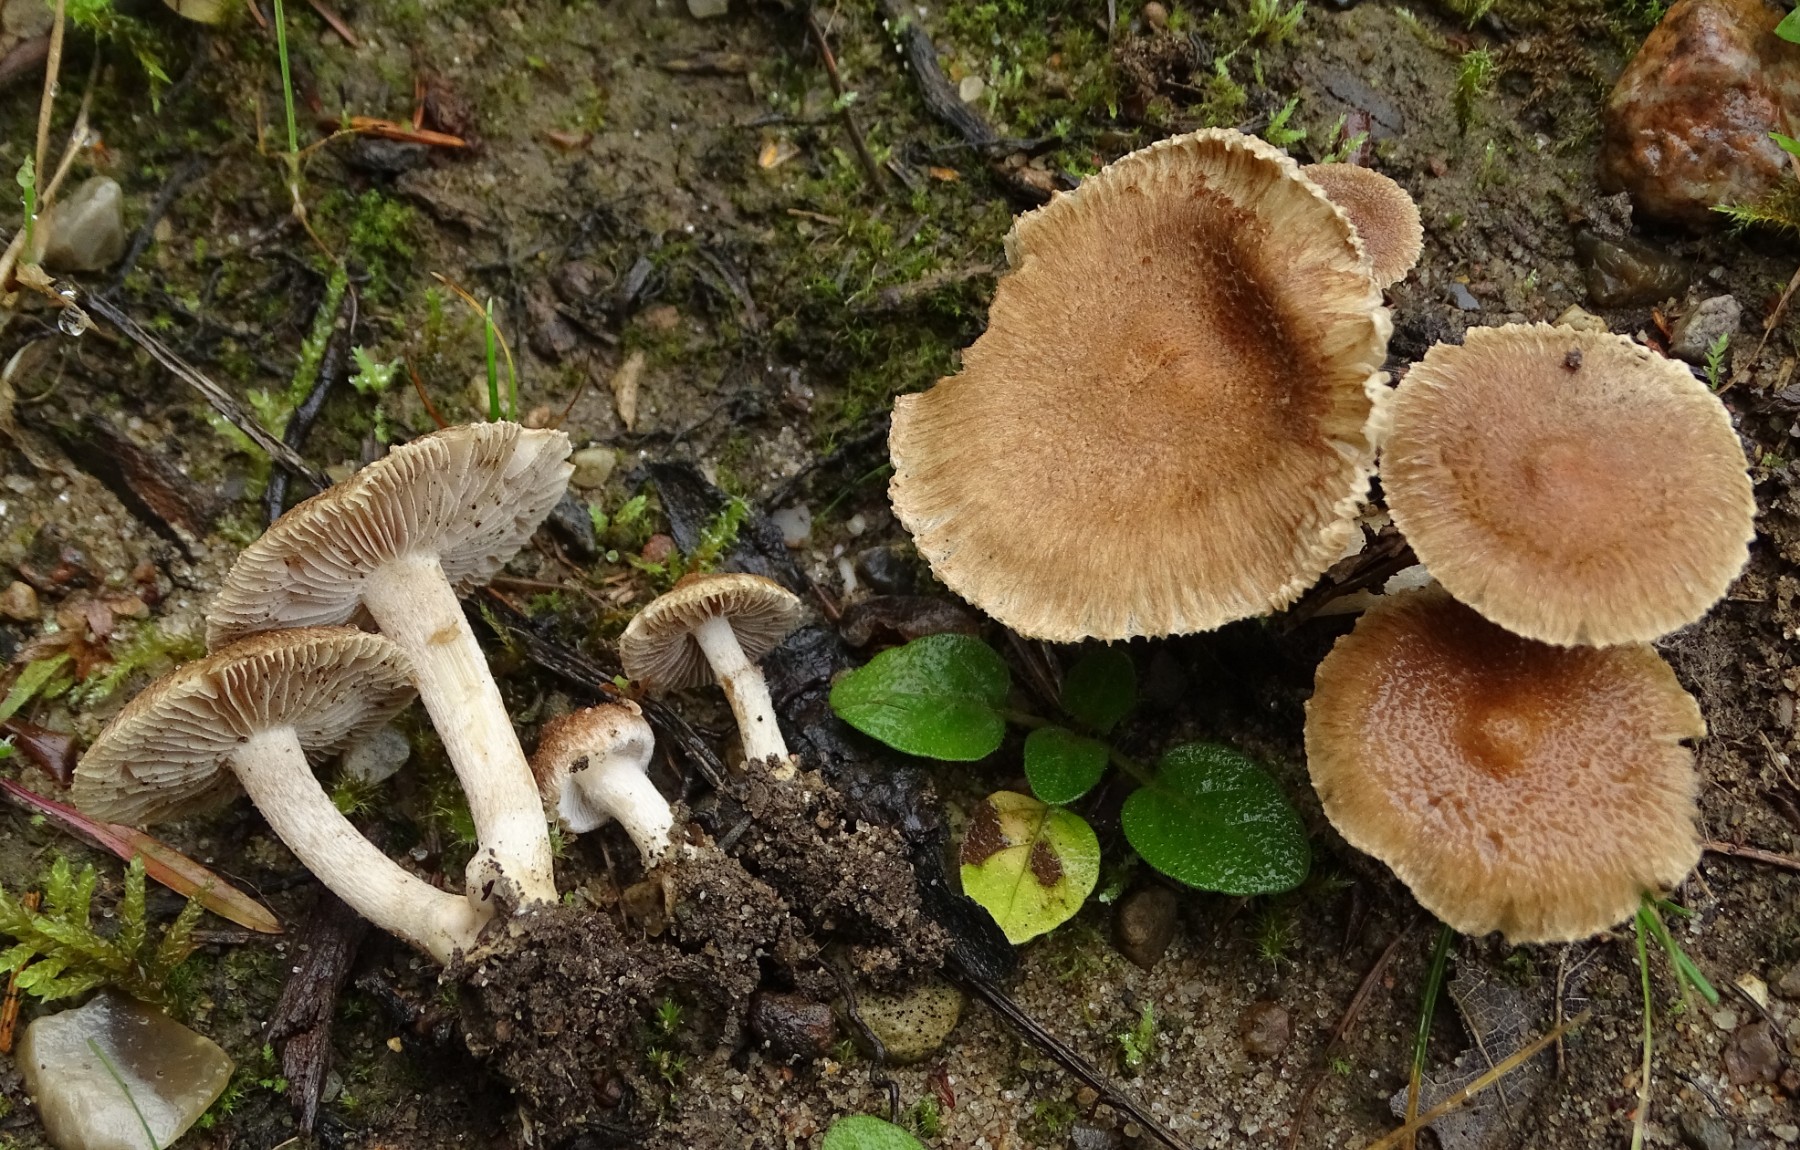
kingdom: Fungi
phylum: Basidiomycota
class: Agaricomycetes
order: Agaricales
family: Inocybaceae
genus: Inocybe
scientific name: Inocybe
